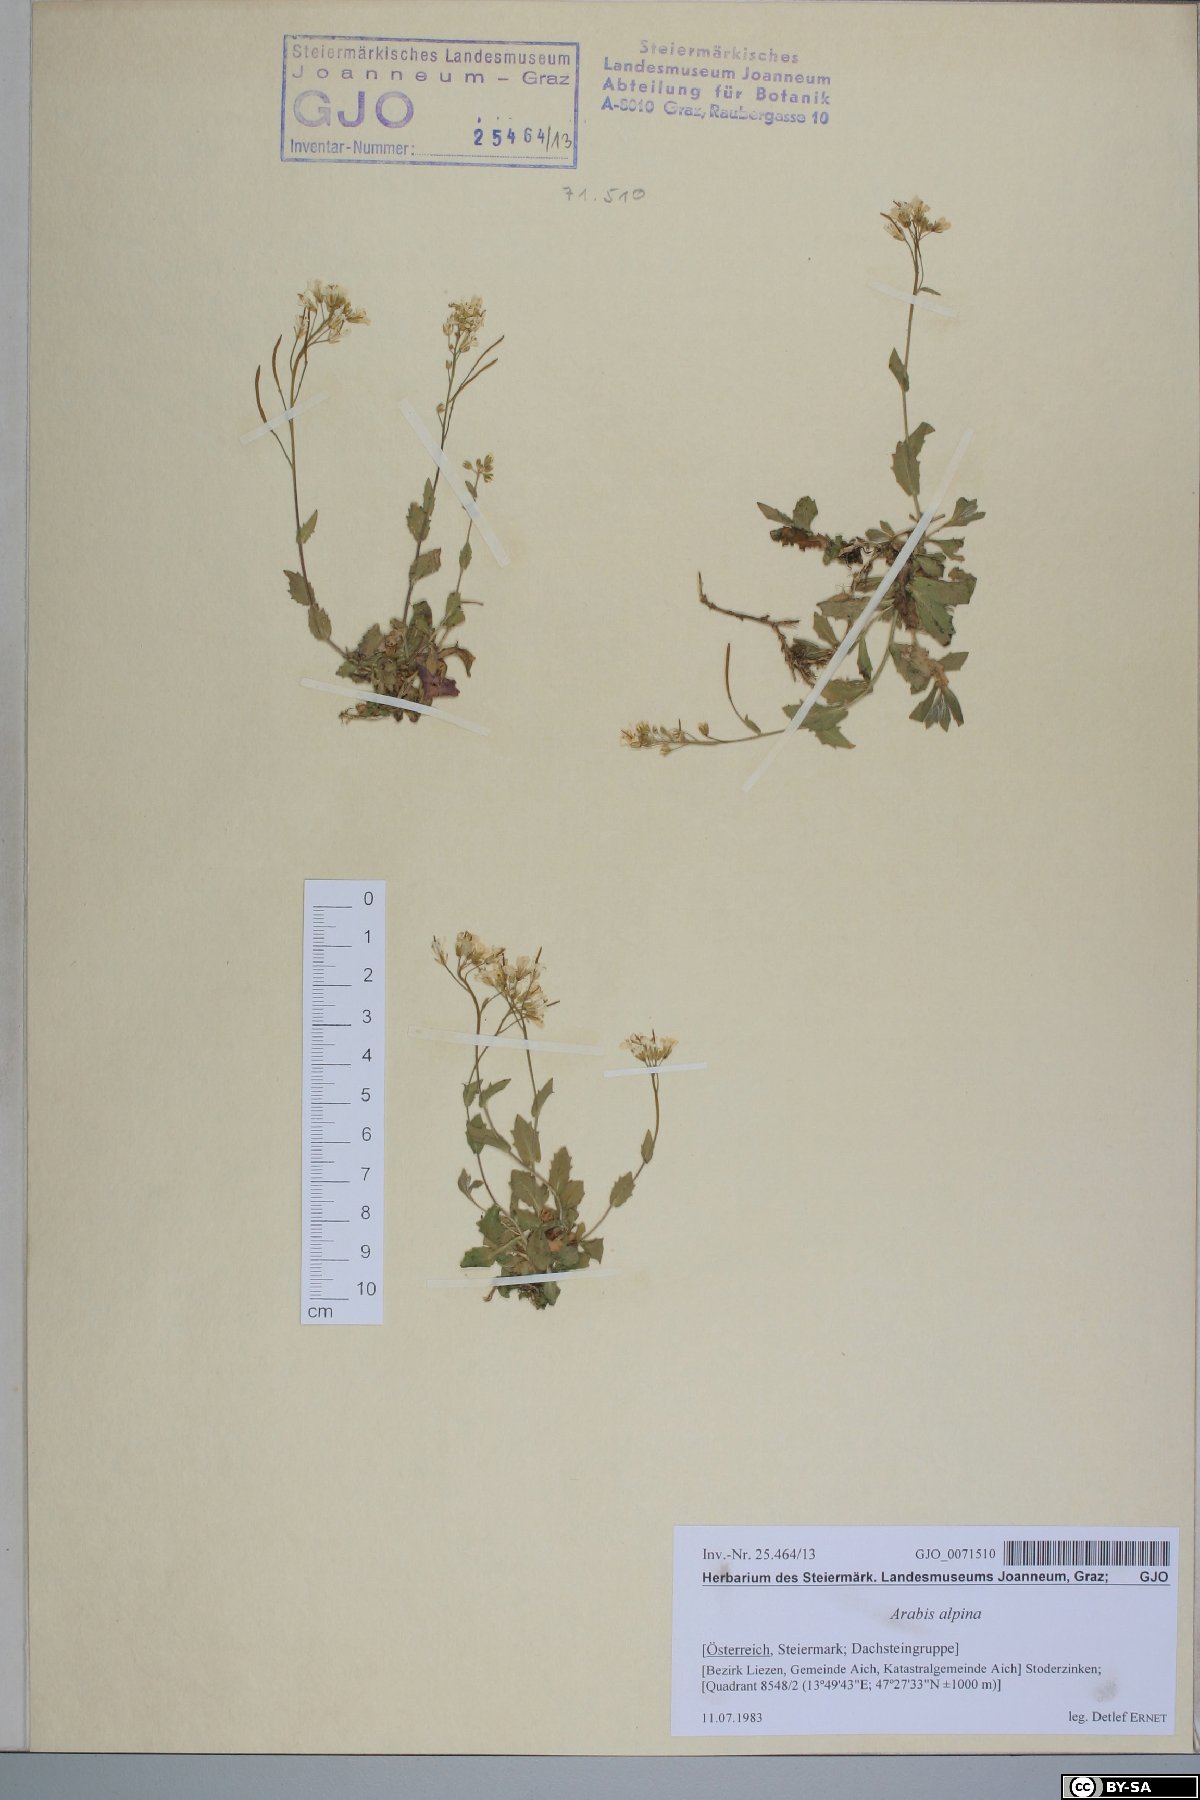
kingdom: Plantae
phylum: Tracheophyta
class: Magnoliopsida
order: Brassicales
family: Brassicaceae
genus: Arabis
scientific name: Arabis alpina
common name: Alpine rock-cress
